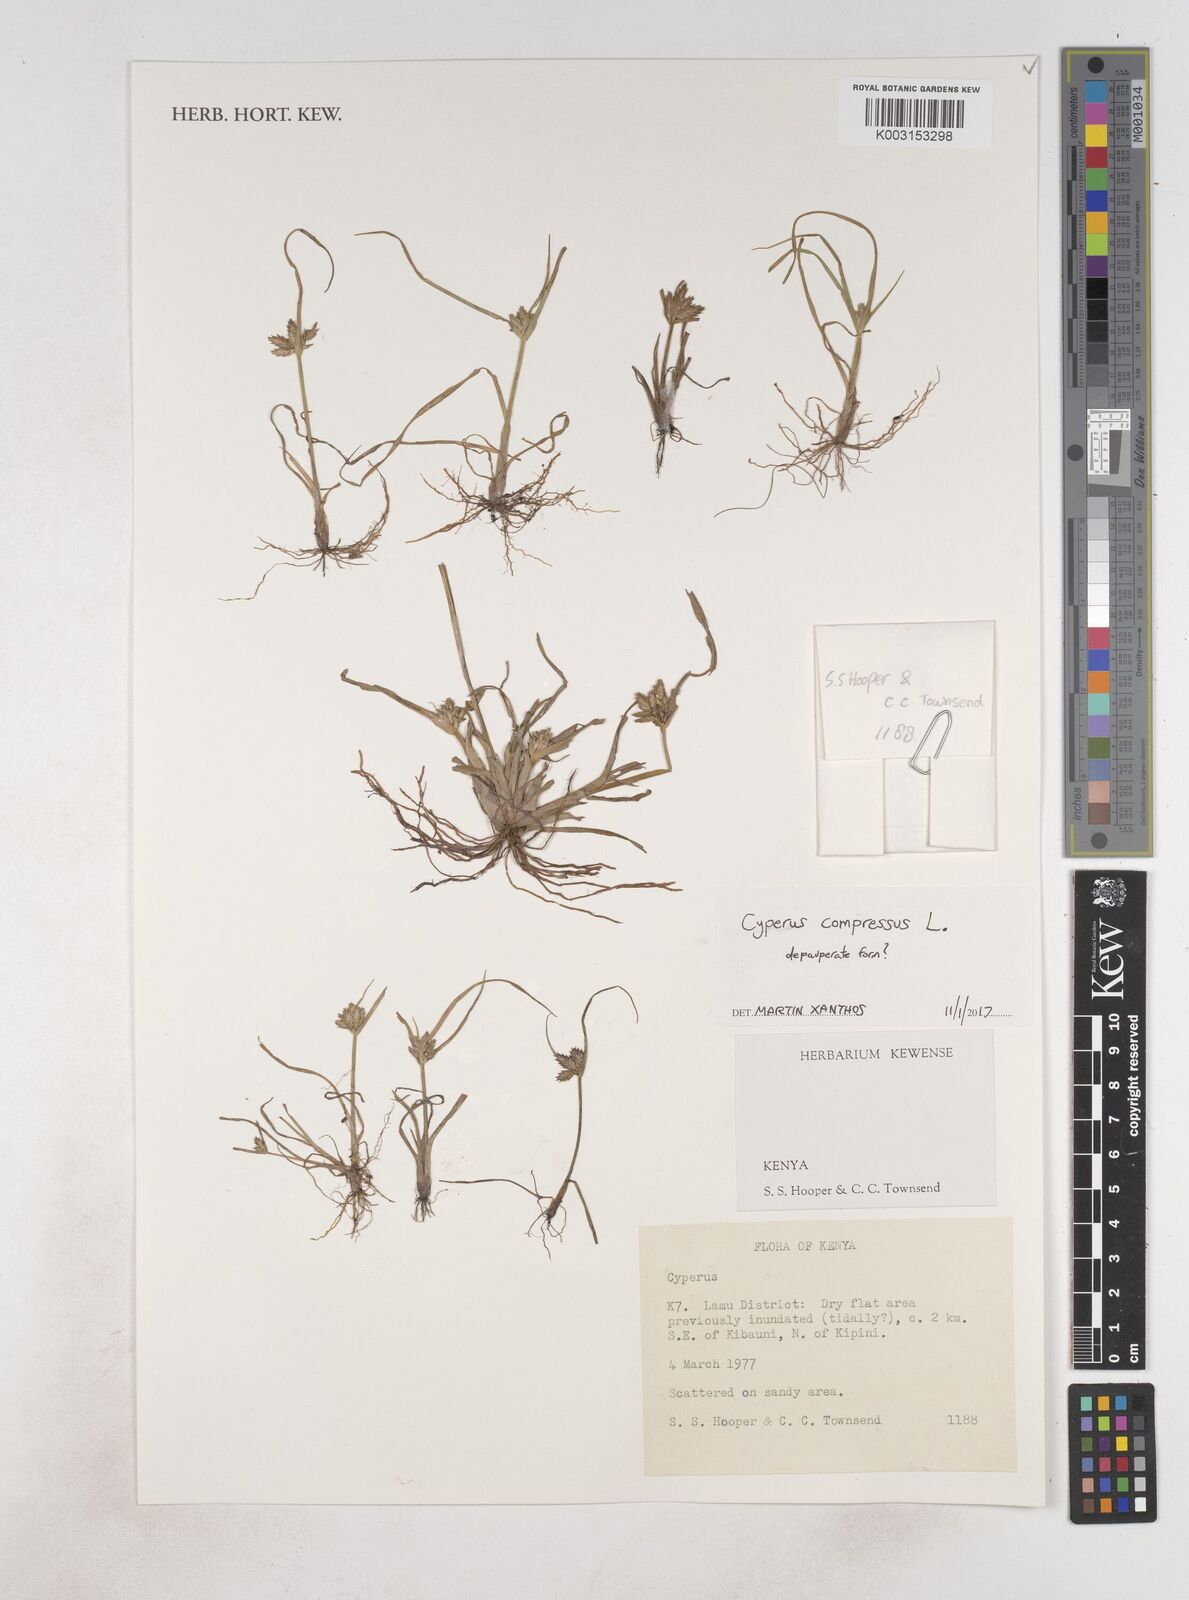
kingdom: Plantae
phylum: Tracheophyta
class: Liliopsida
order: Poales
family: Cyperaceae
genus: Cyperus
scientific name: Cyperus compressus
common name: Poorland flatsedge
